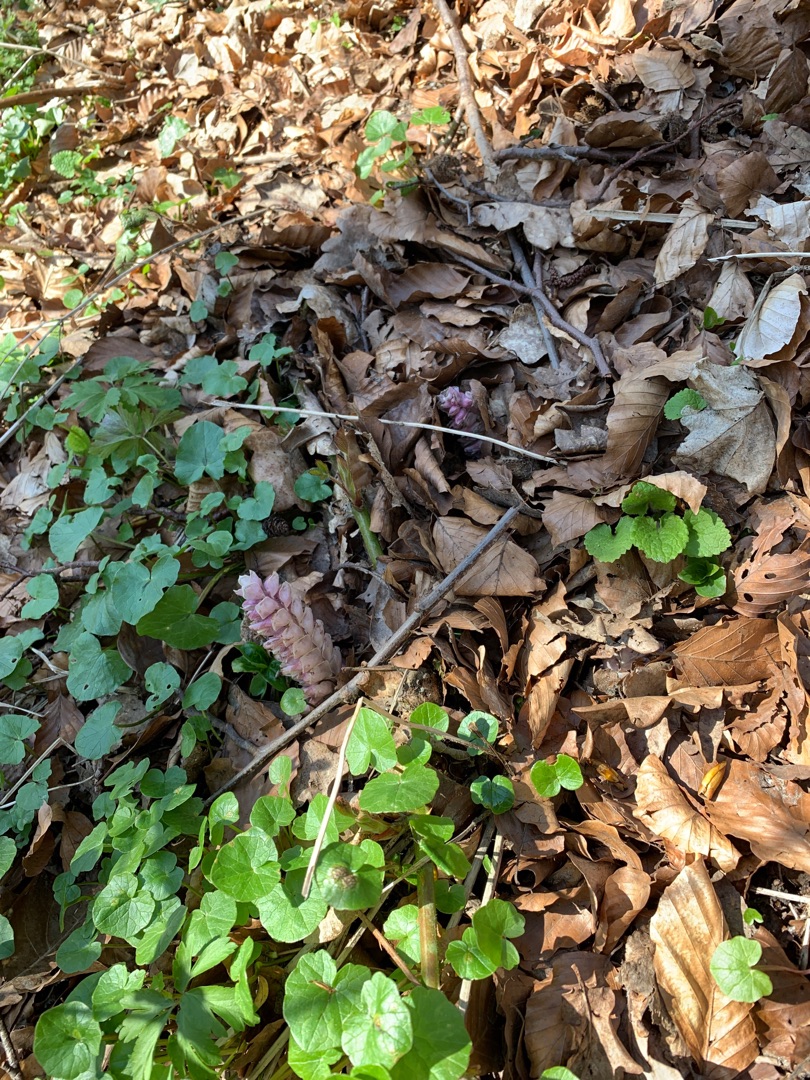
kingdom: Plantae
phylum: Tracheophyta
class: Magnoliopsida
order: Lamiales
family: Orobanchaceae
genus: Lathraea
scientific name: Lathraea squamaria
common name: Skælrod
